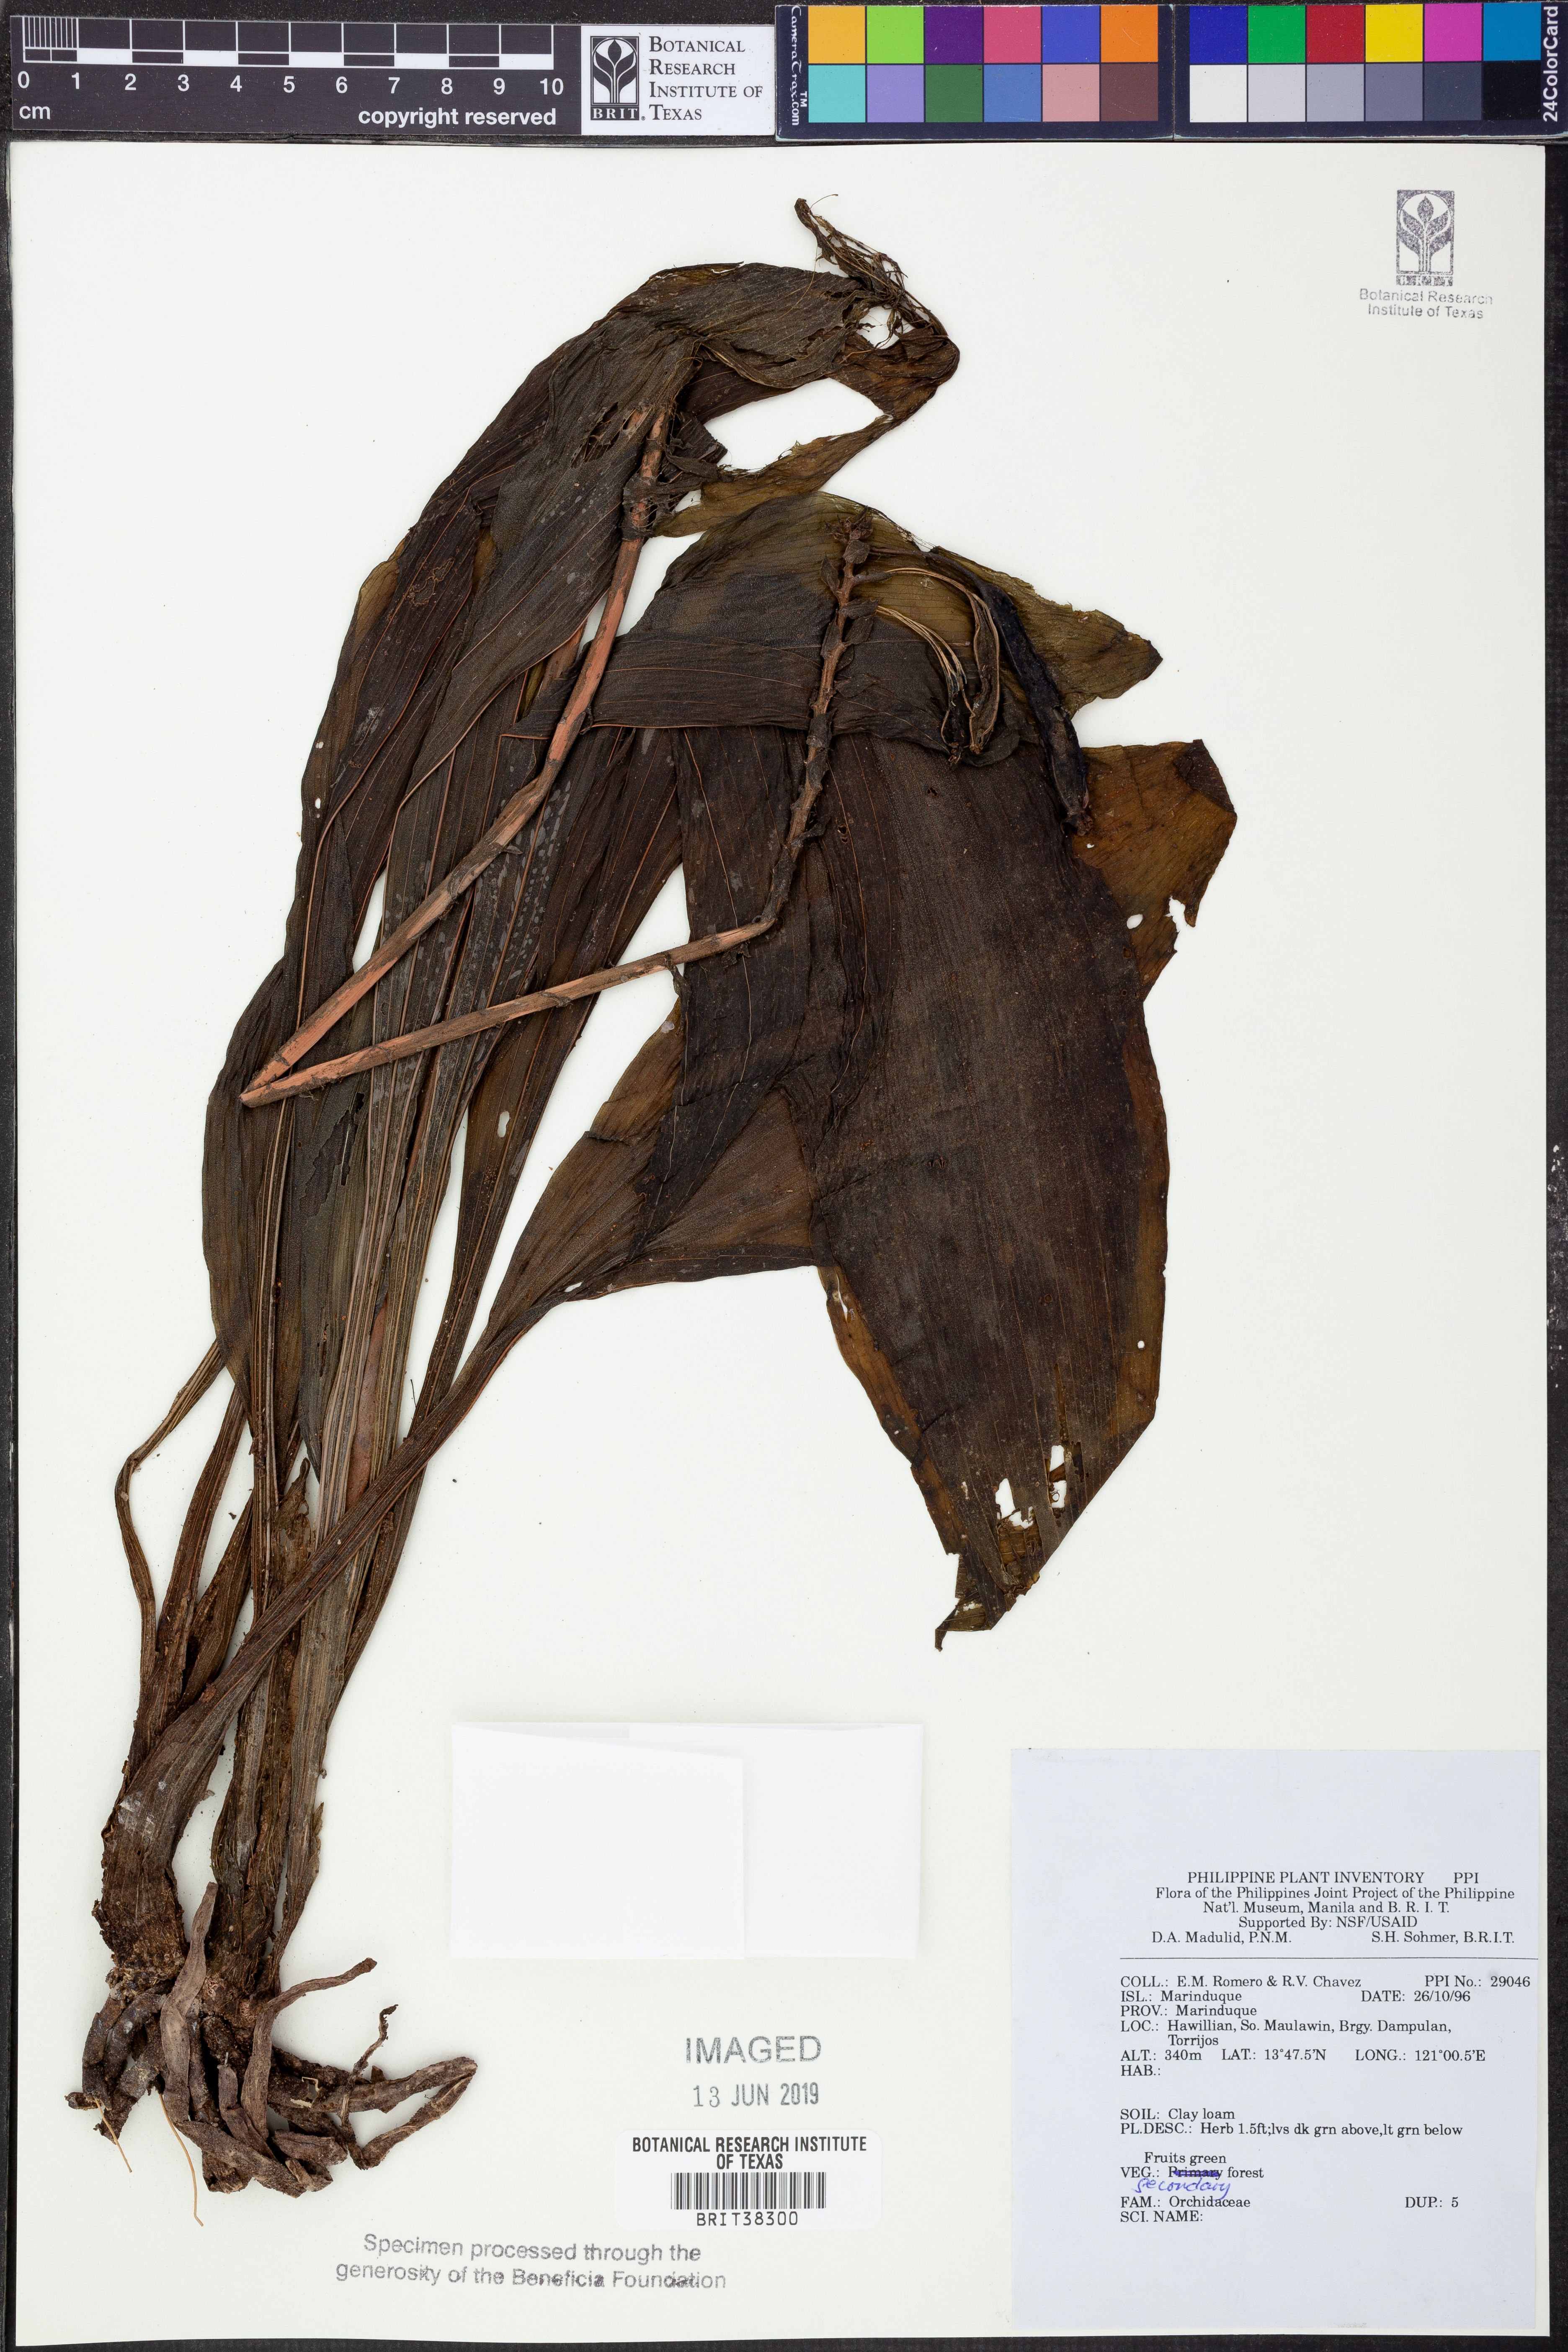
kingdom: Plantae
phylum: Tracheophyta
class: Liliopsida
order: Asparagales
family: Orchidaceae
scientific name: Orchidaceae
